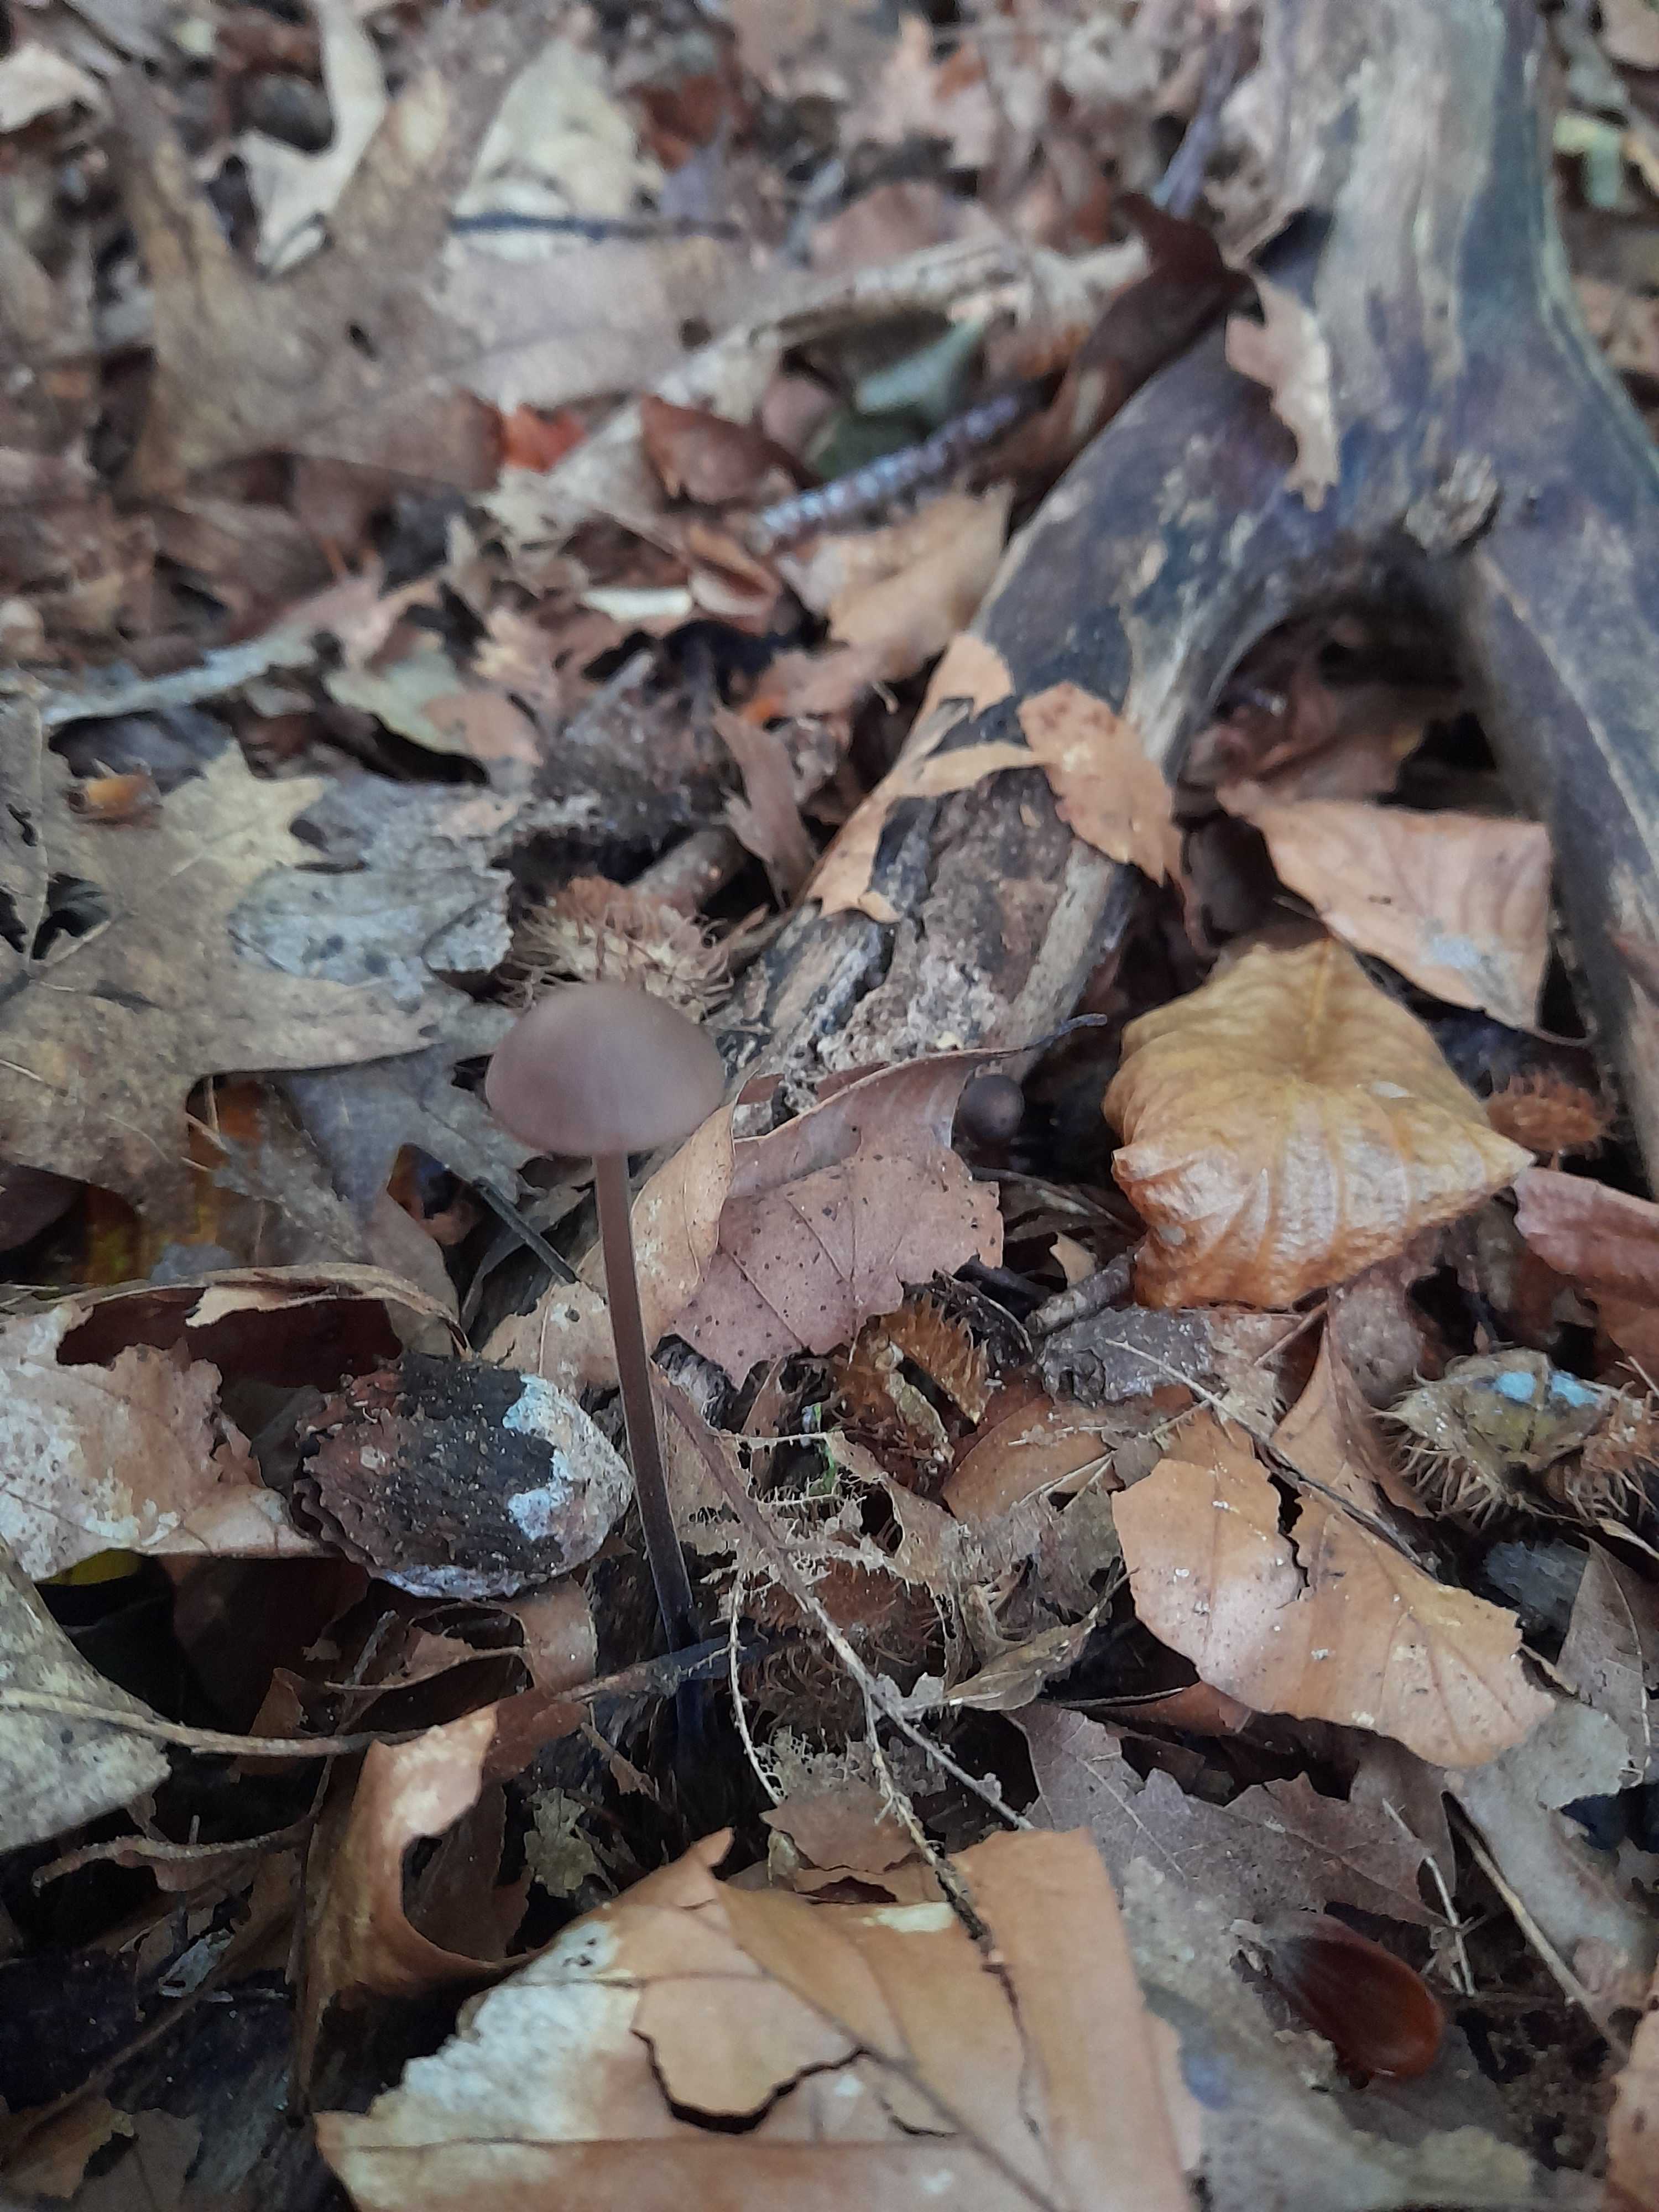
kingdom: Fungi
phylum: Basidiomycota
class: Agaricomycetes
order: Agaricales
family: Omphalotaceae
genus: Mycetinis
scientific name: Mycetinis alliaceus
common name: stor løghat
